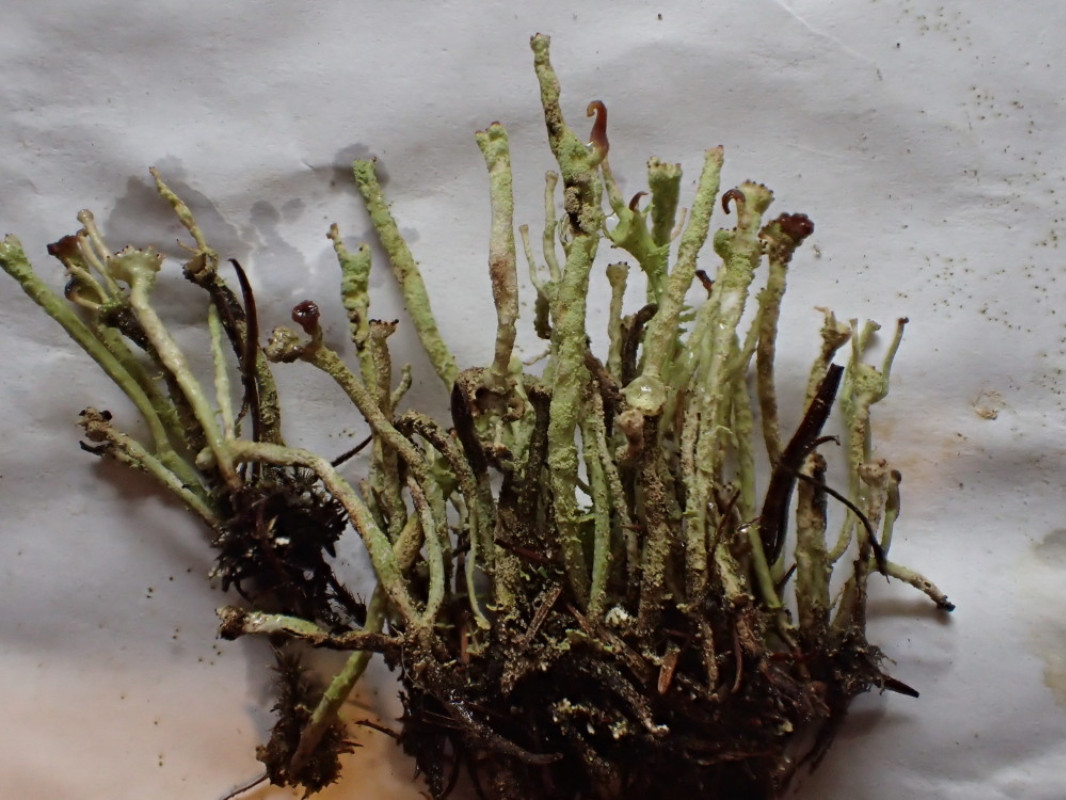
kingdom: Fungi
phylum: Ascomycota
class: Lecanoromycetes
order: Lecanorales
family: Cladoniaceae
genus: Cladonia
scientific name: Cladonia ochrochlora
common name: stød-bægerlav
